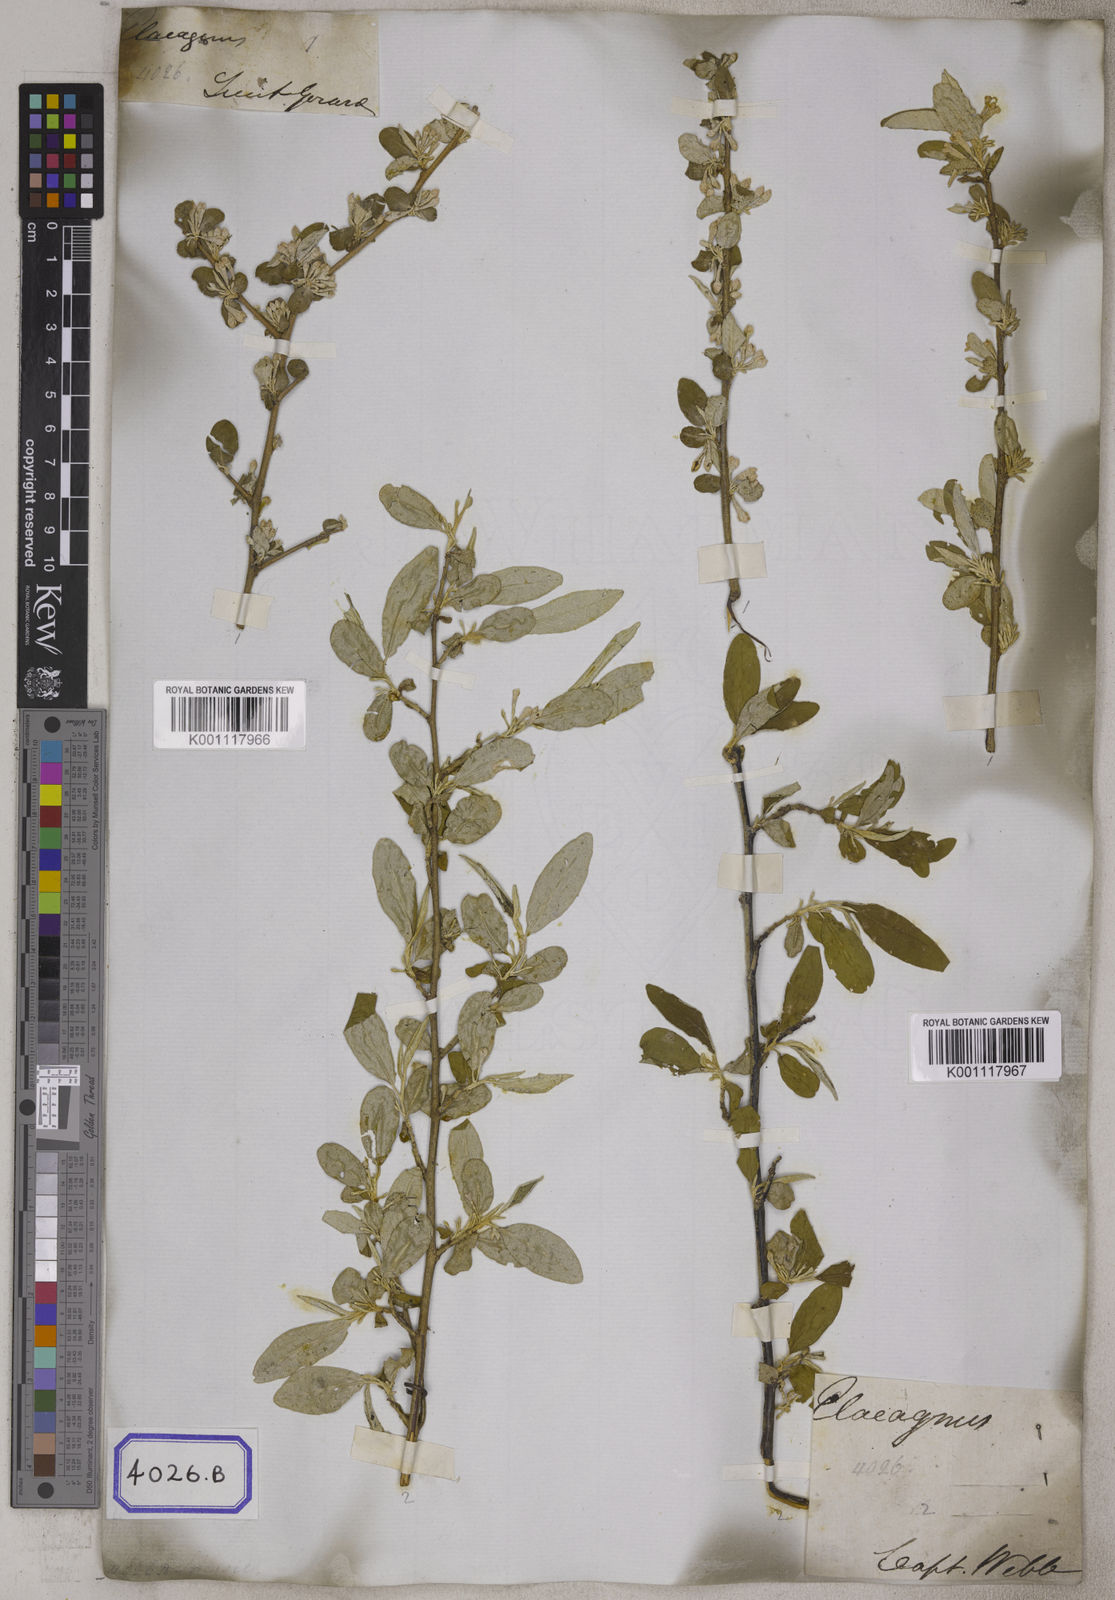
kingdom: Plantae
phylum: Tracheophyta
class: Magnoliopsida
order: Rosales
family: Elaeagnaceae
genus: Elaeagnus
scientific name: Elaeagnus
